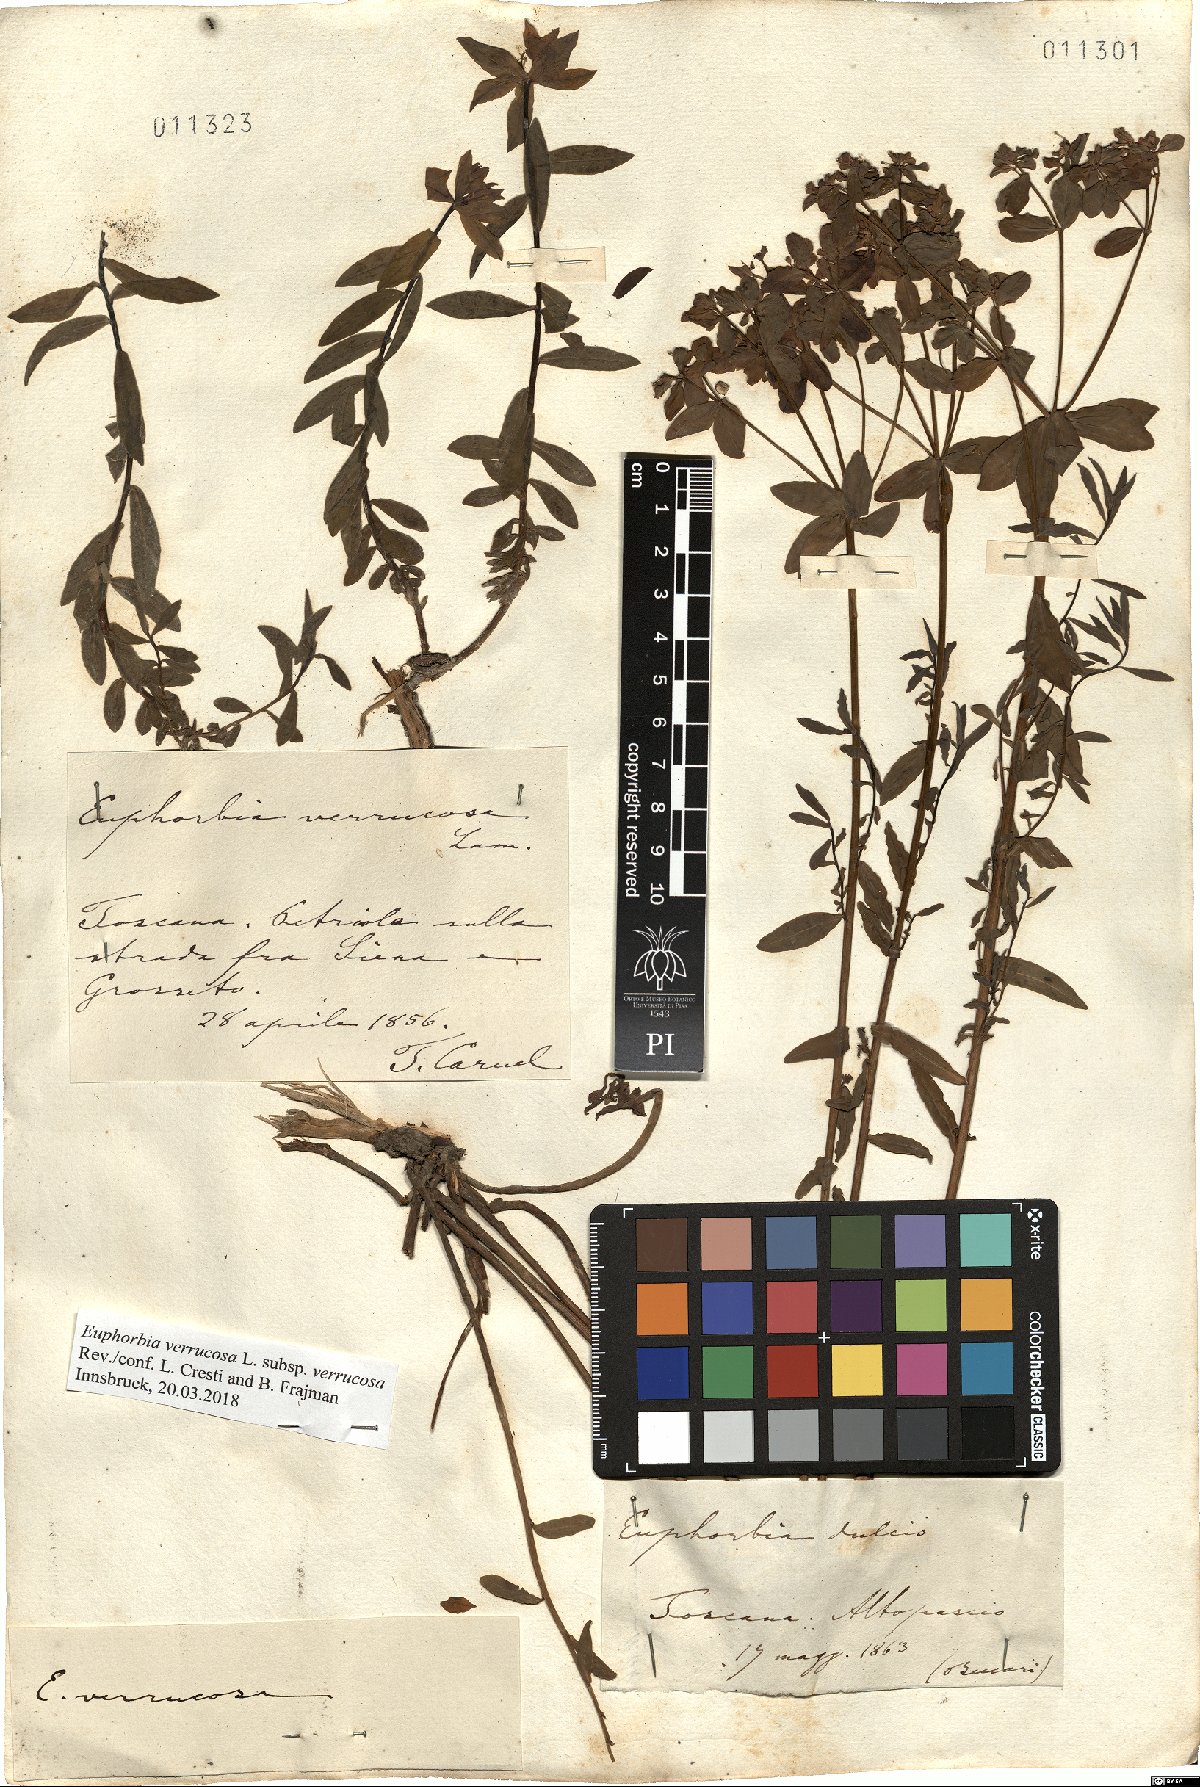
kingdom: Plantae
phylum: Tracheophyta
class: Magnoliopsida
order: Malpighiales
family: Euphorbiaceae
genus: Euphorbia
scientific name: Euphorbia verrucosa
